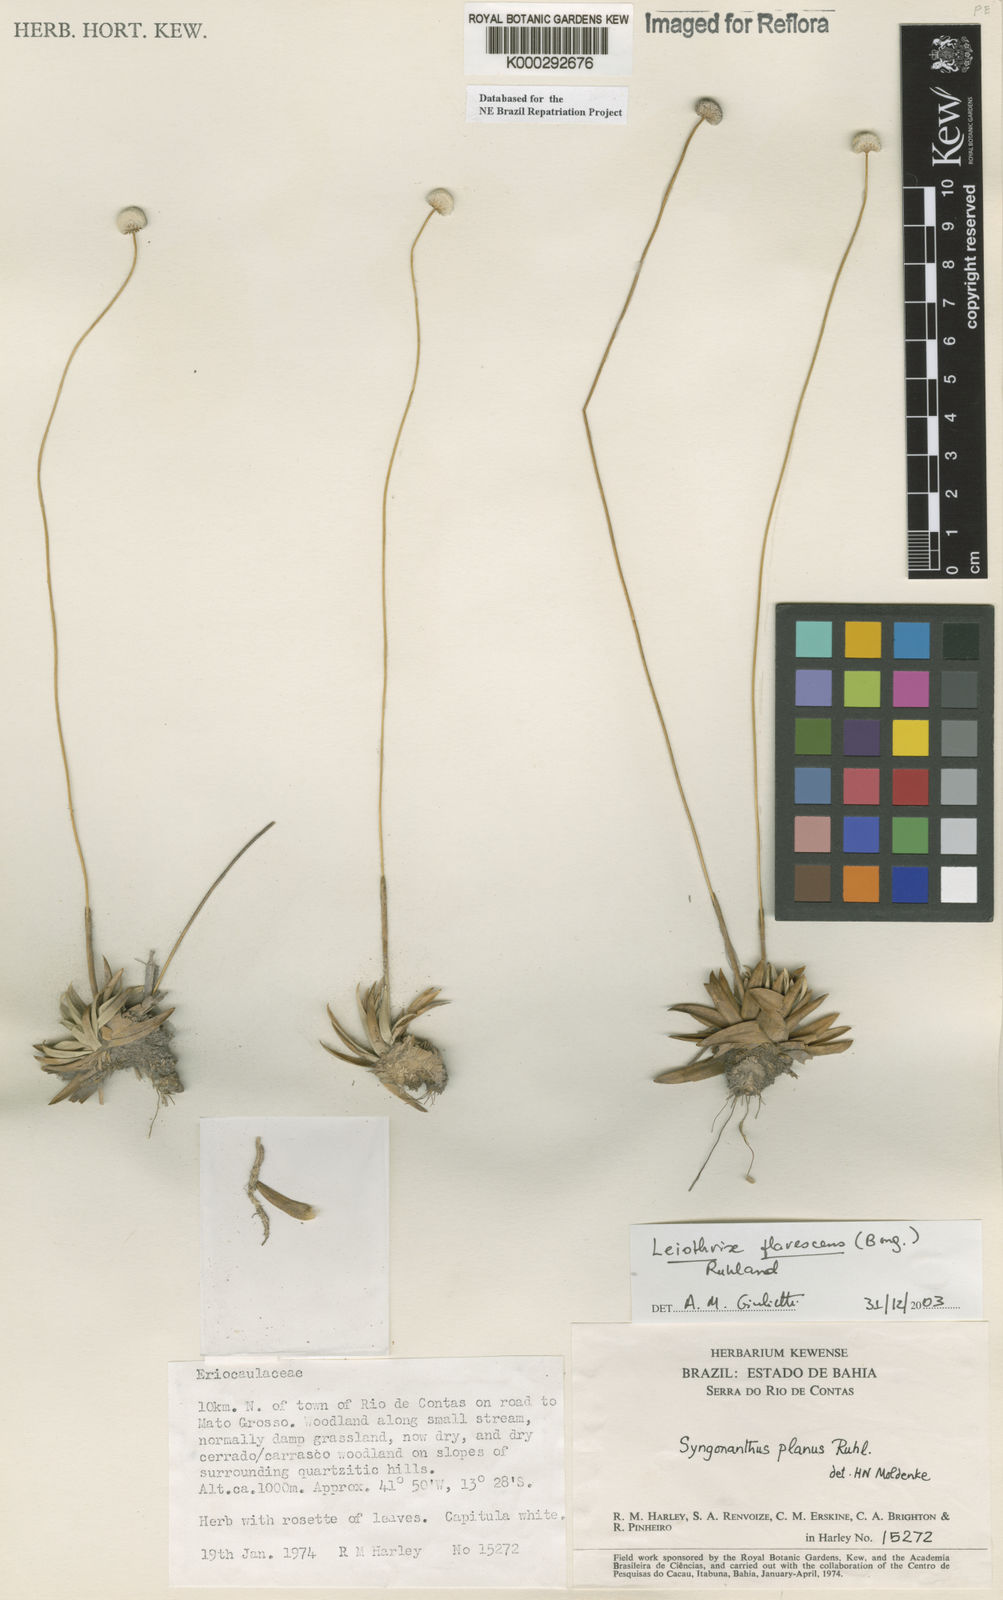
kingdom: Plantae
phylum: Tracheophyta
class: Liliopsida
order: Poales
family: Eriocaulaceae
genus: Leiothrix
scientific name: Leiothrix flavescens
